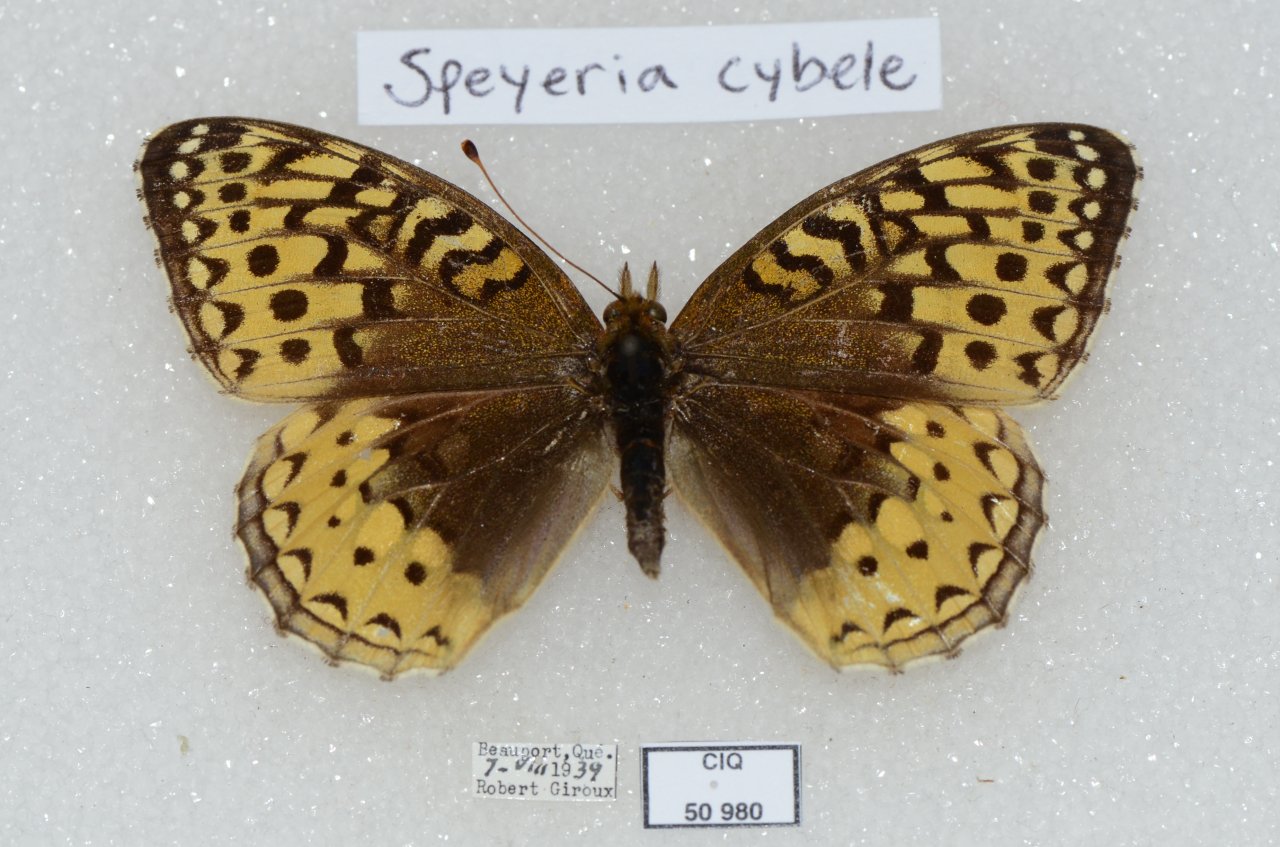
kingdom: Animalia
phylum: Arthropoda
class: Insecta
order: Lepidoptera
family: Nymphalidae
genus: Speyeria
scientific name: Speyeria cybele
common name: Great Spangled Fritillary
